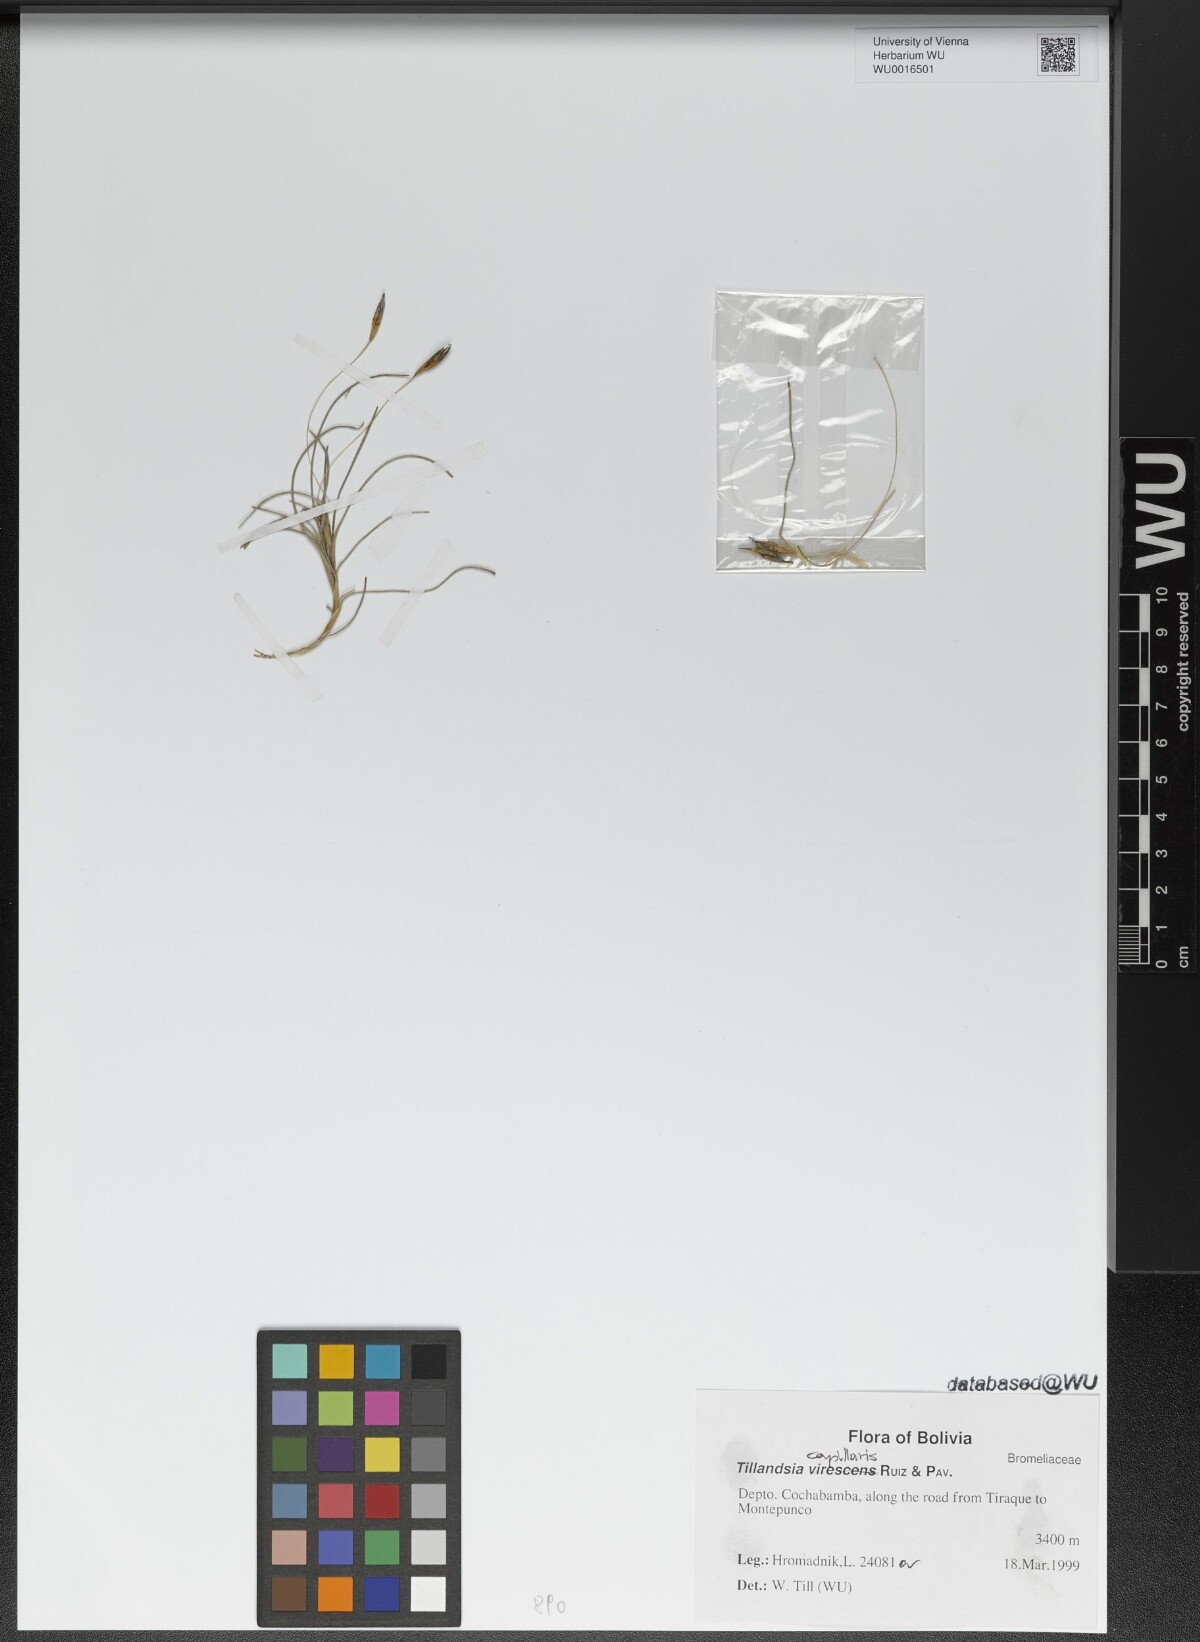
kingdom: Plantae
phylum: Tracheophyta
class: Liliopsida
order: Poales
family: Bromeliaceae
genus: Tillandsia
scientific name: Tillandsia capillaris
